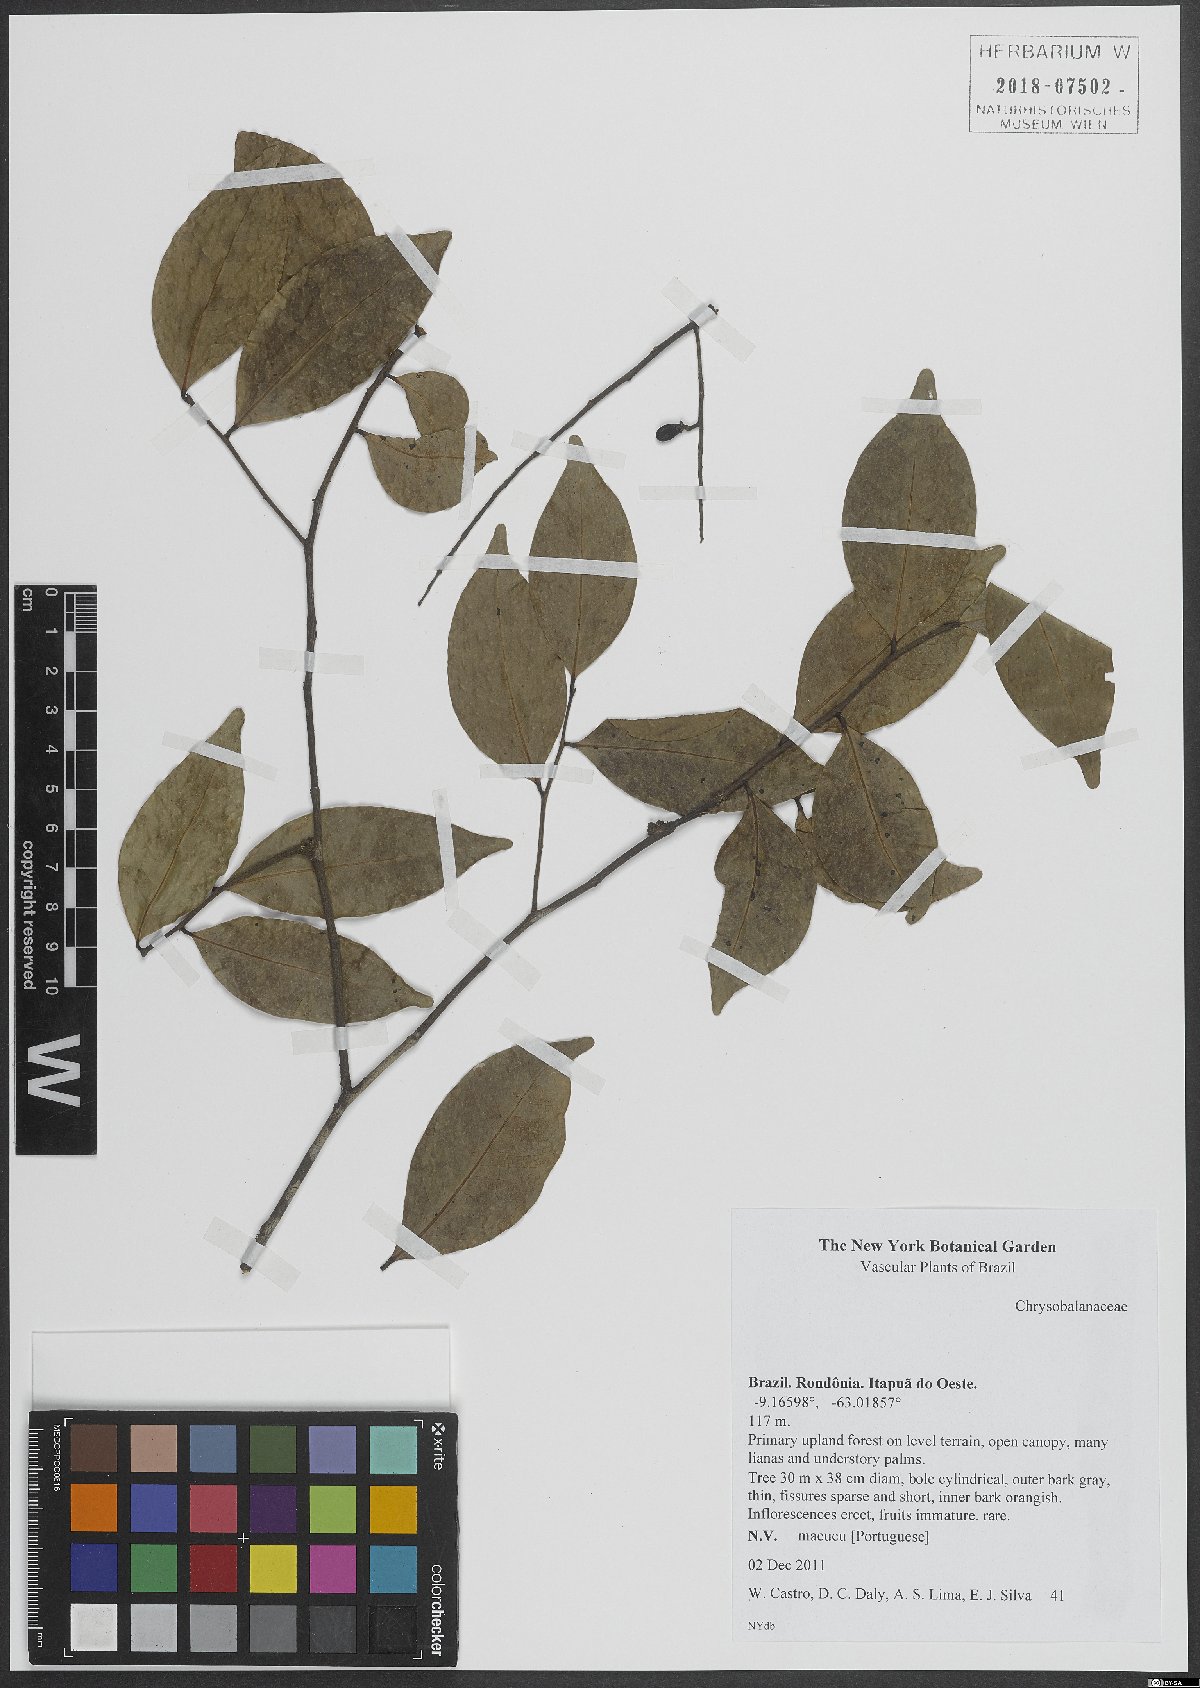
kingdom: Plantae
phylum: Tracheophyta
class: Magnoliopsida
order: Malpighiales
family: Chrysobalanaceae
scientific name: Chrysobalanaceae
